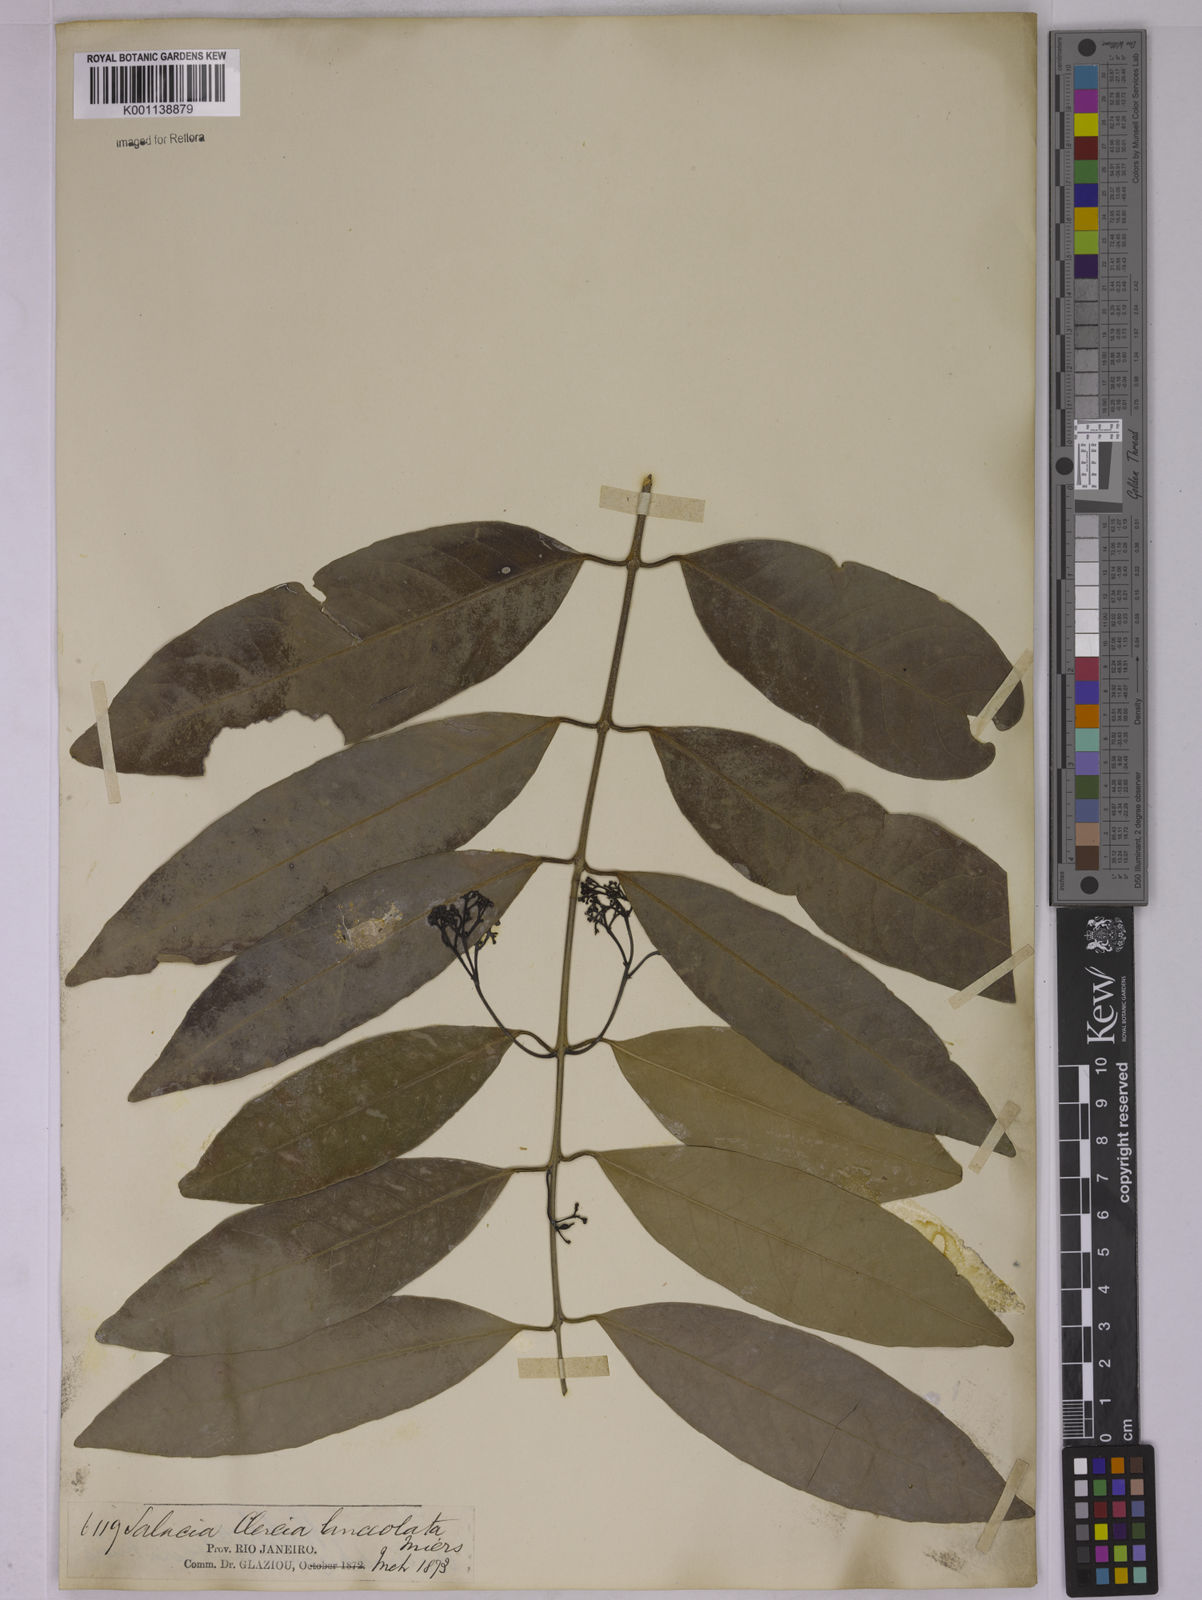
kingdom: Plantae
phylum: Tracheophyta
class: Magnoliopsida
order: Celastrales
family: Celastraceae
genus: Tontelea
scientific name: Tontelea lanceolata
